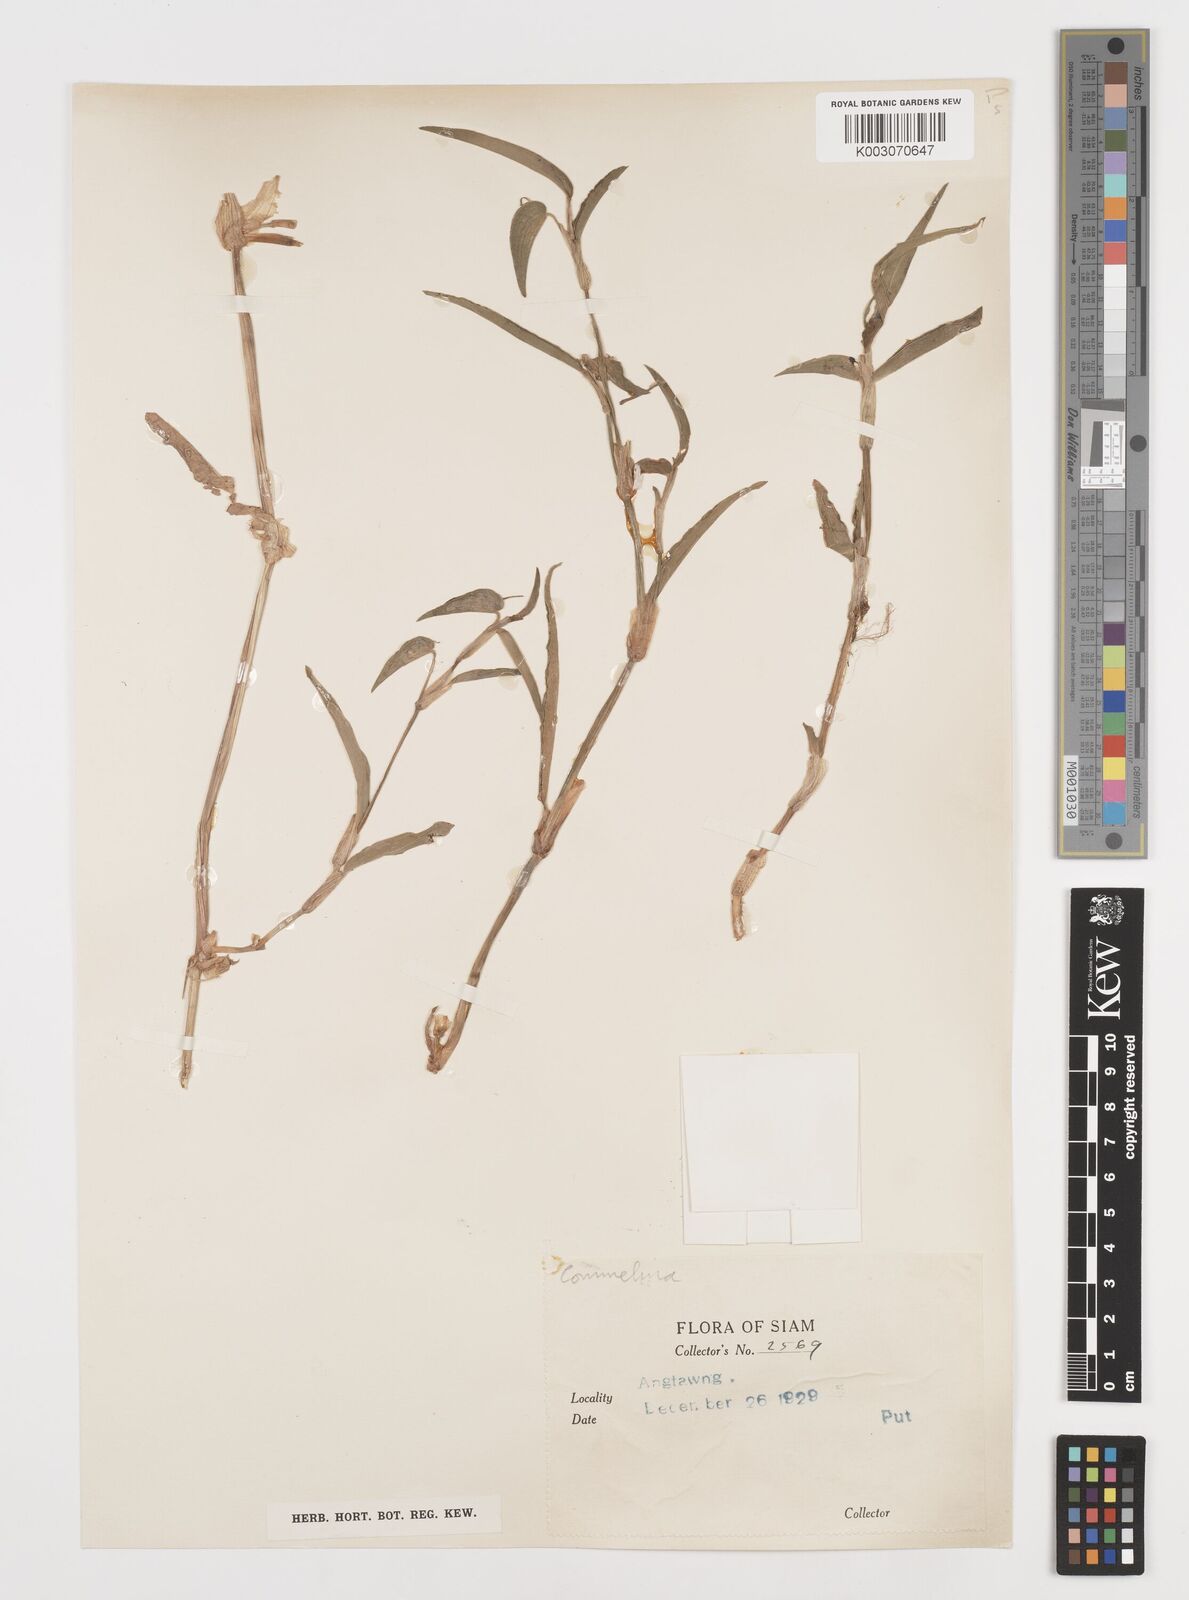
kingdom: Plantae
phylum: Tracheophyta
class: Liliopsida
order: Commelinales
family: Commelinaceae
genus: Commelina
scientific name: Commelina
